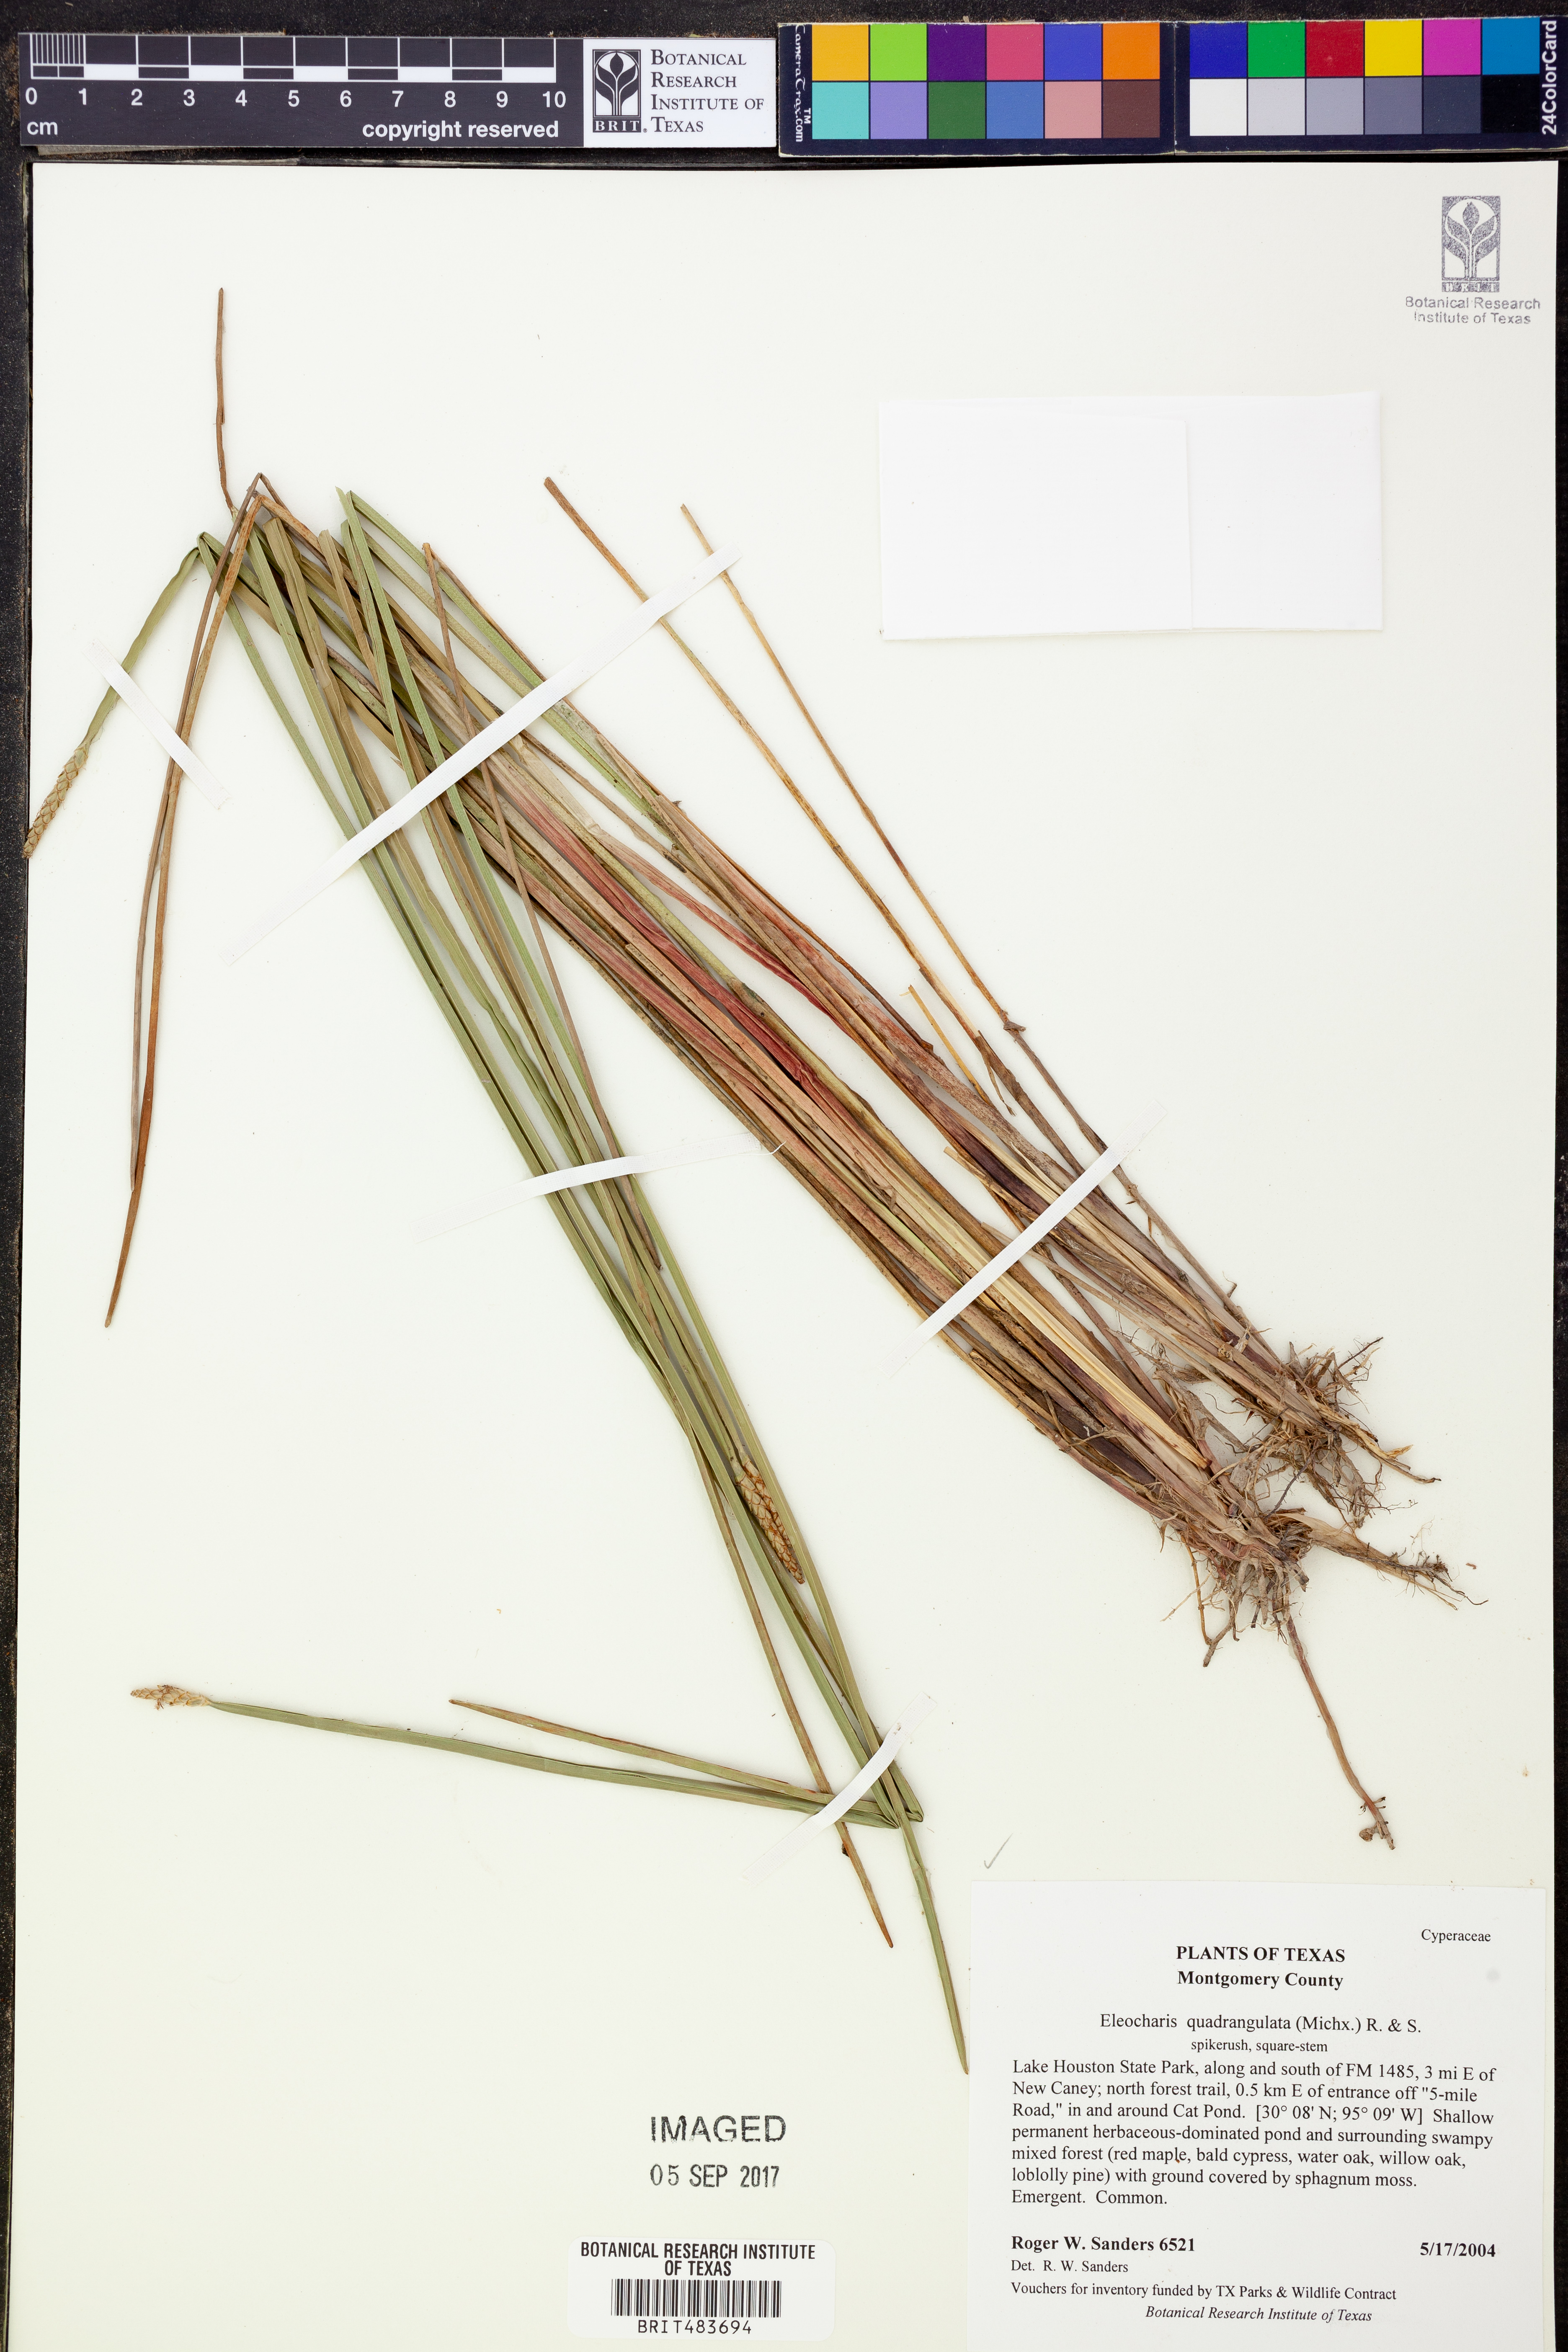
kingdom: Plantae
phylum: Tracheophyta
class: Liliopsida
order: Poales
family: Cyperaceae
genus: Eleocharis
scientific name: Eleocharis quadrangulata
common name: Square-stem spike-rush
